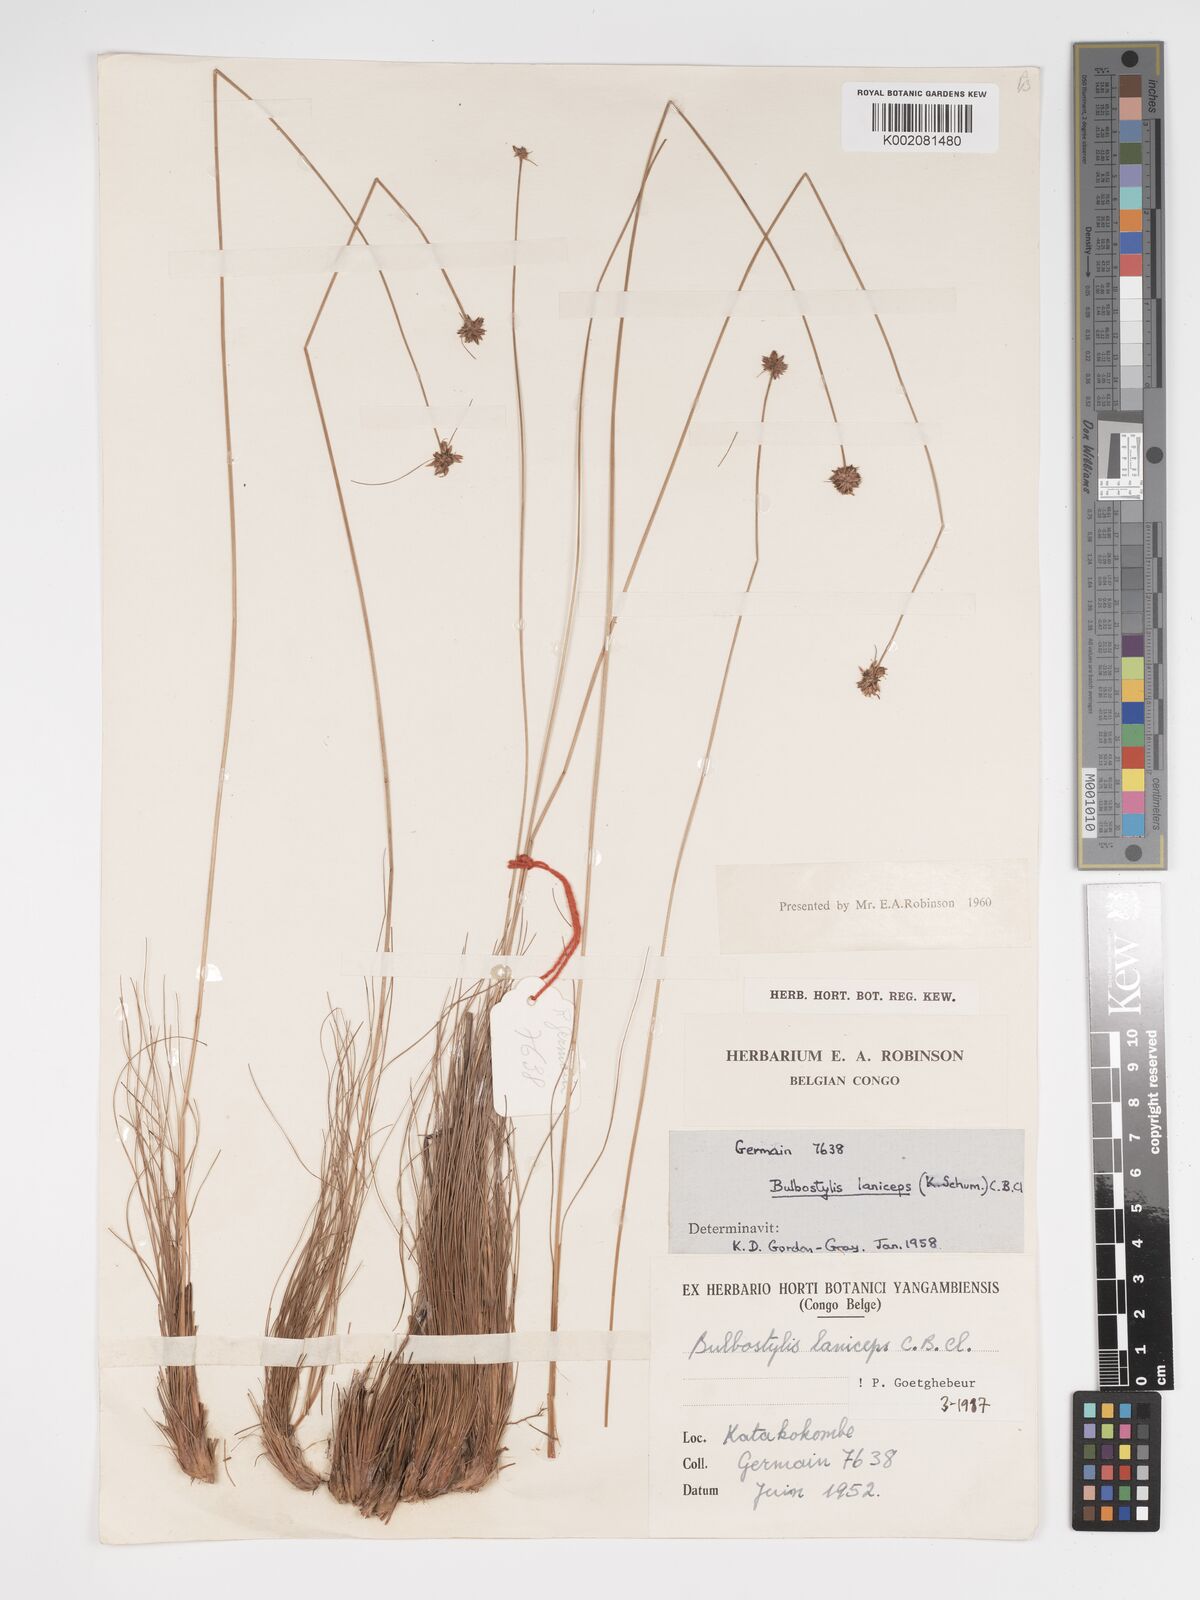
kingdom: Plantae
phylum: Tracheophyta
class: Liliopsida
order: Poales
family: Cyperaceae
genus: Bulbostylis
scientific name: Bulbostylis laniceps
